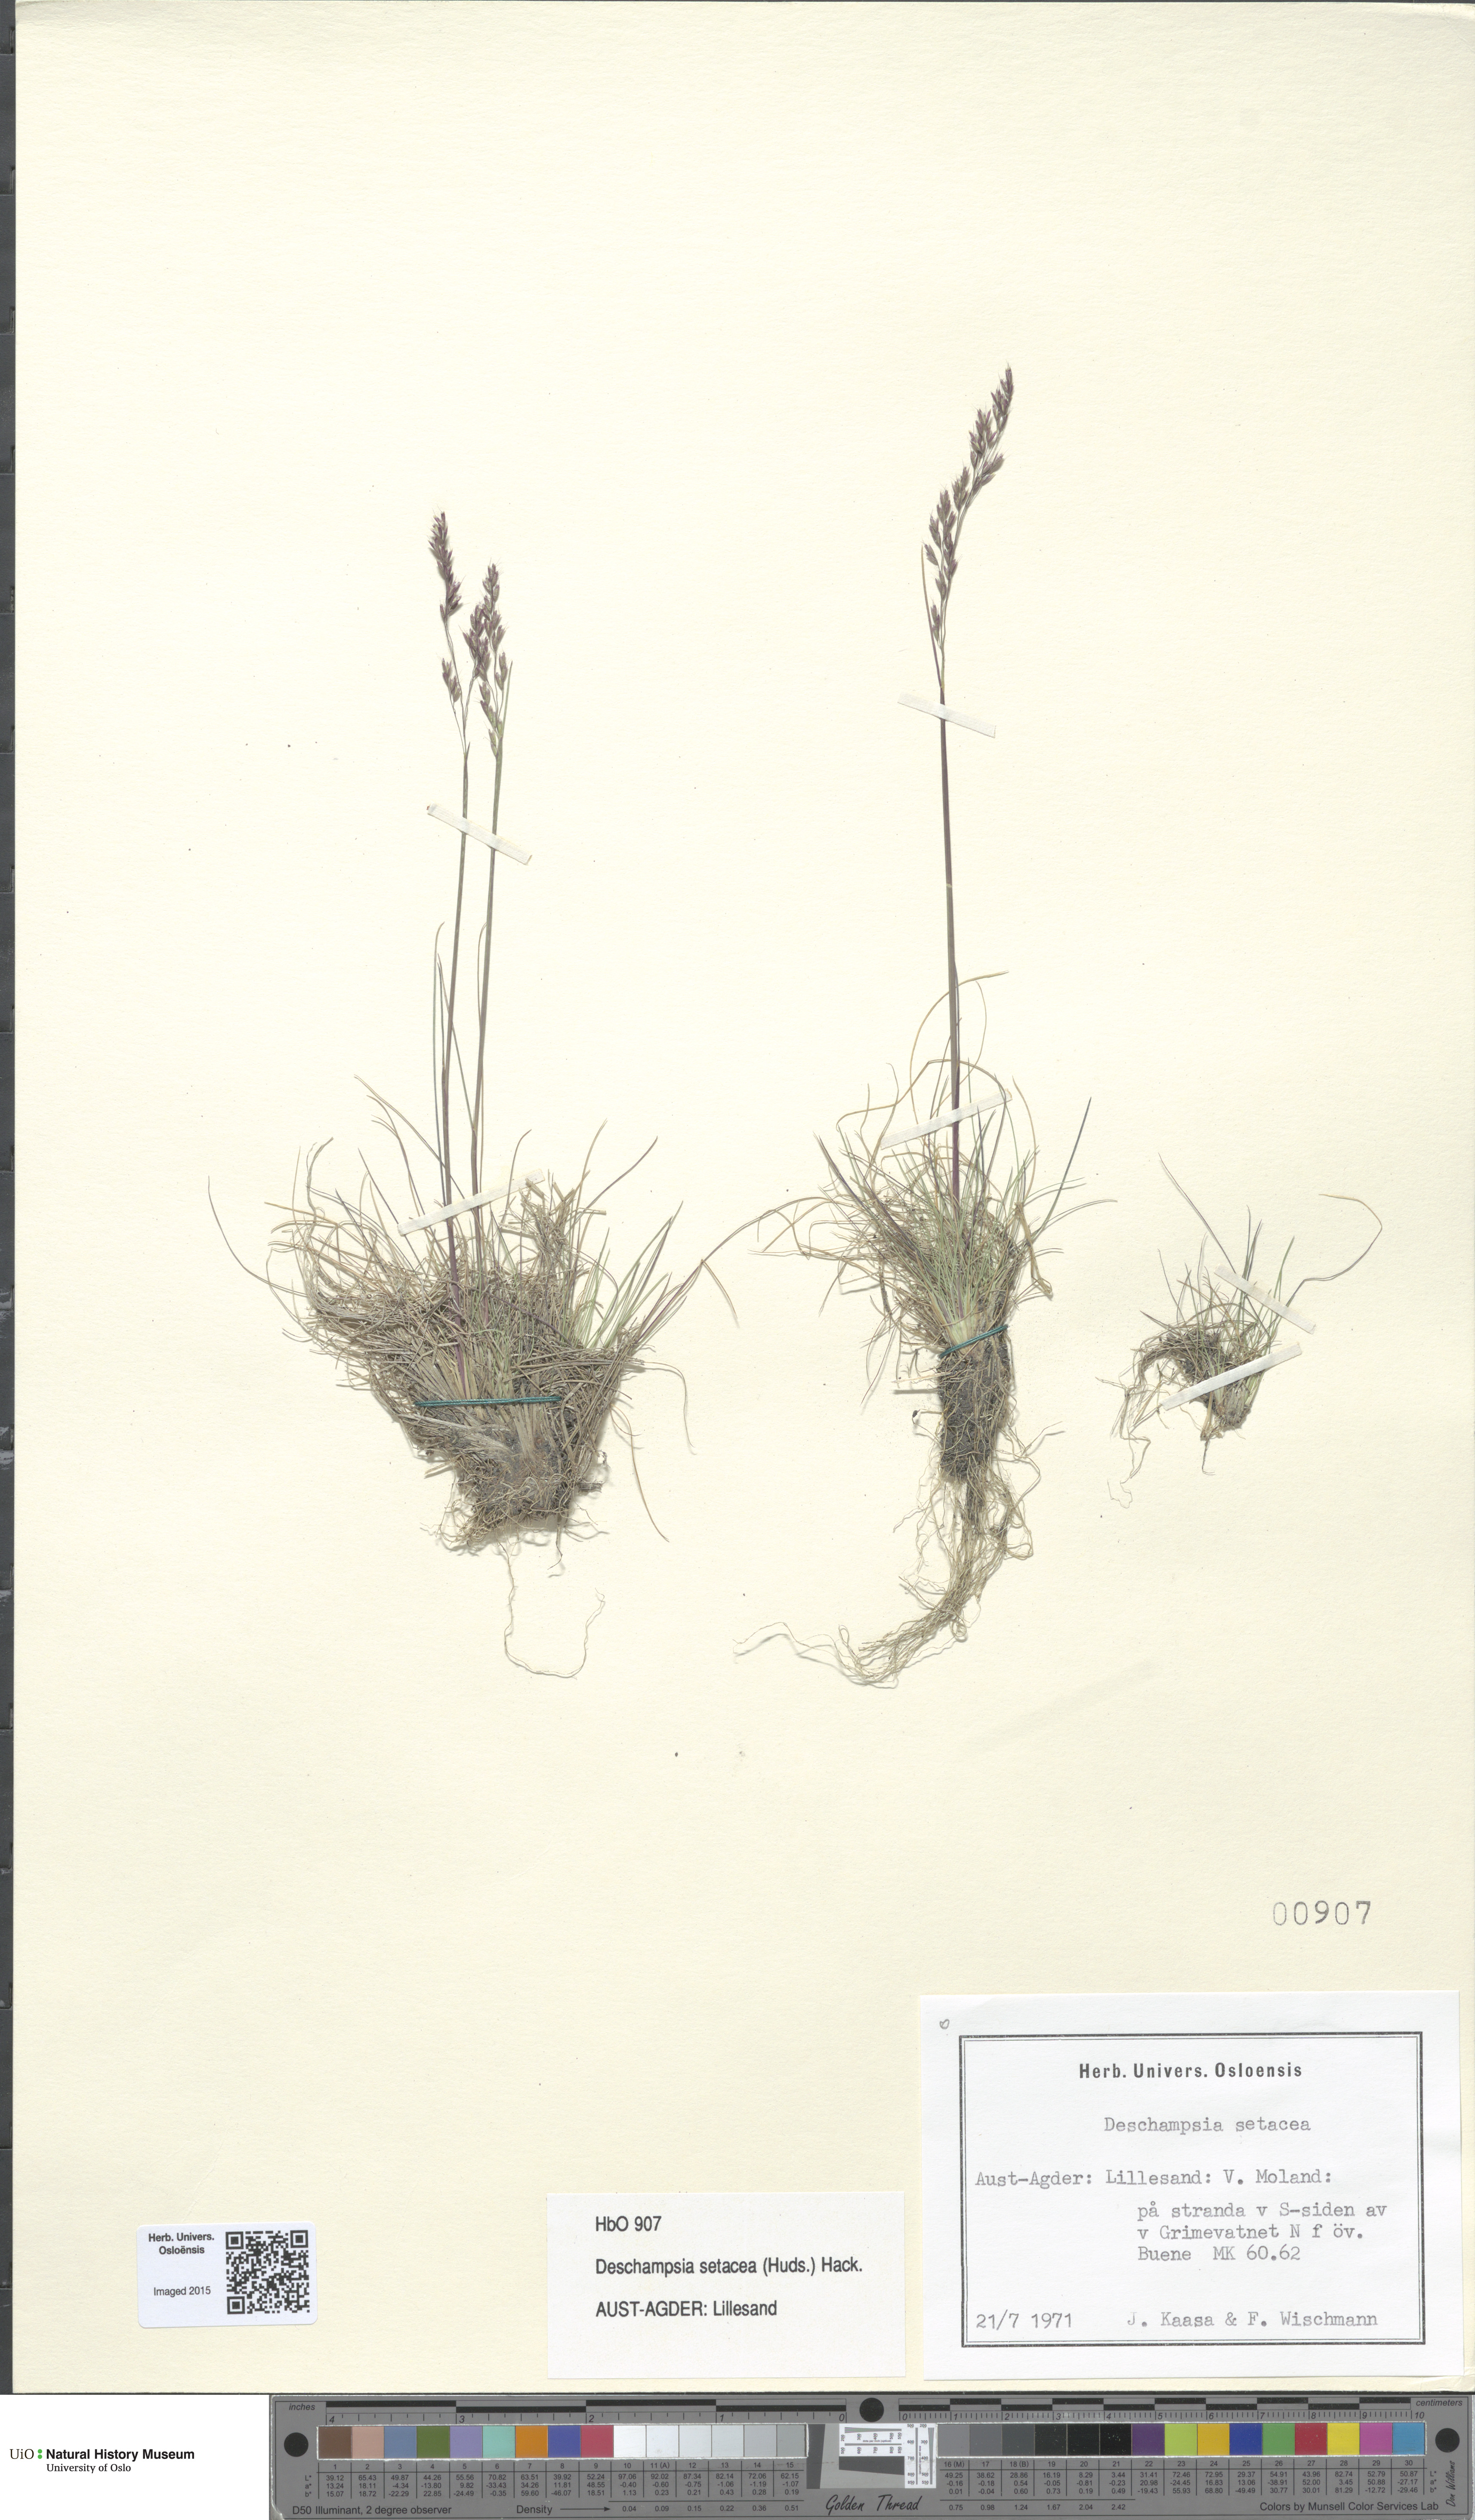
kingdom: Plantae
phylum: Tracheophyta
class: Liliopsida
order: Poales
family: Poaceae
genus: Deschampsia
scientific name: Deschampsia setacea
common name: Bog hair-grass
